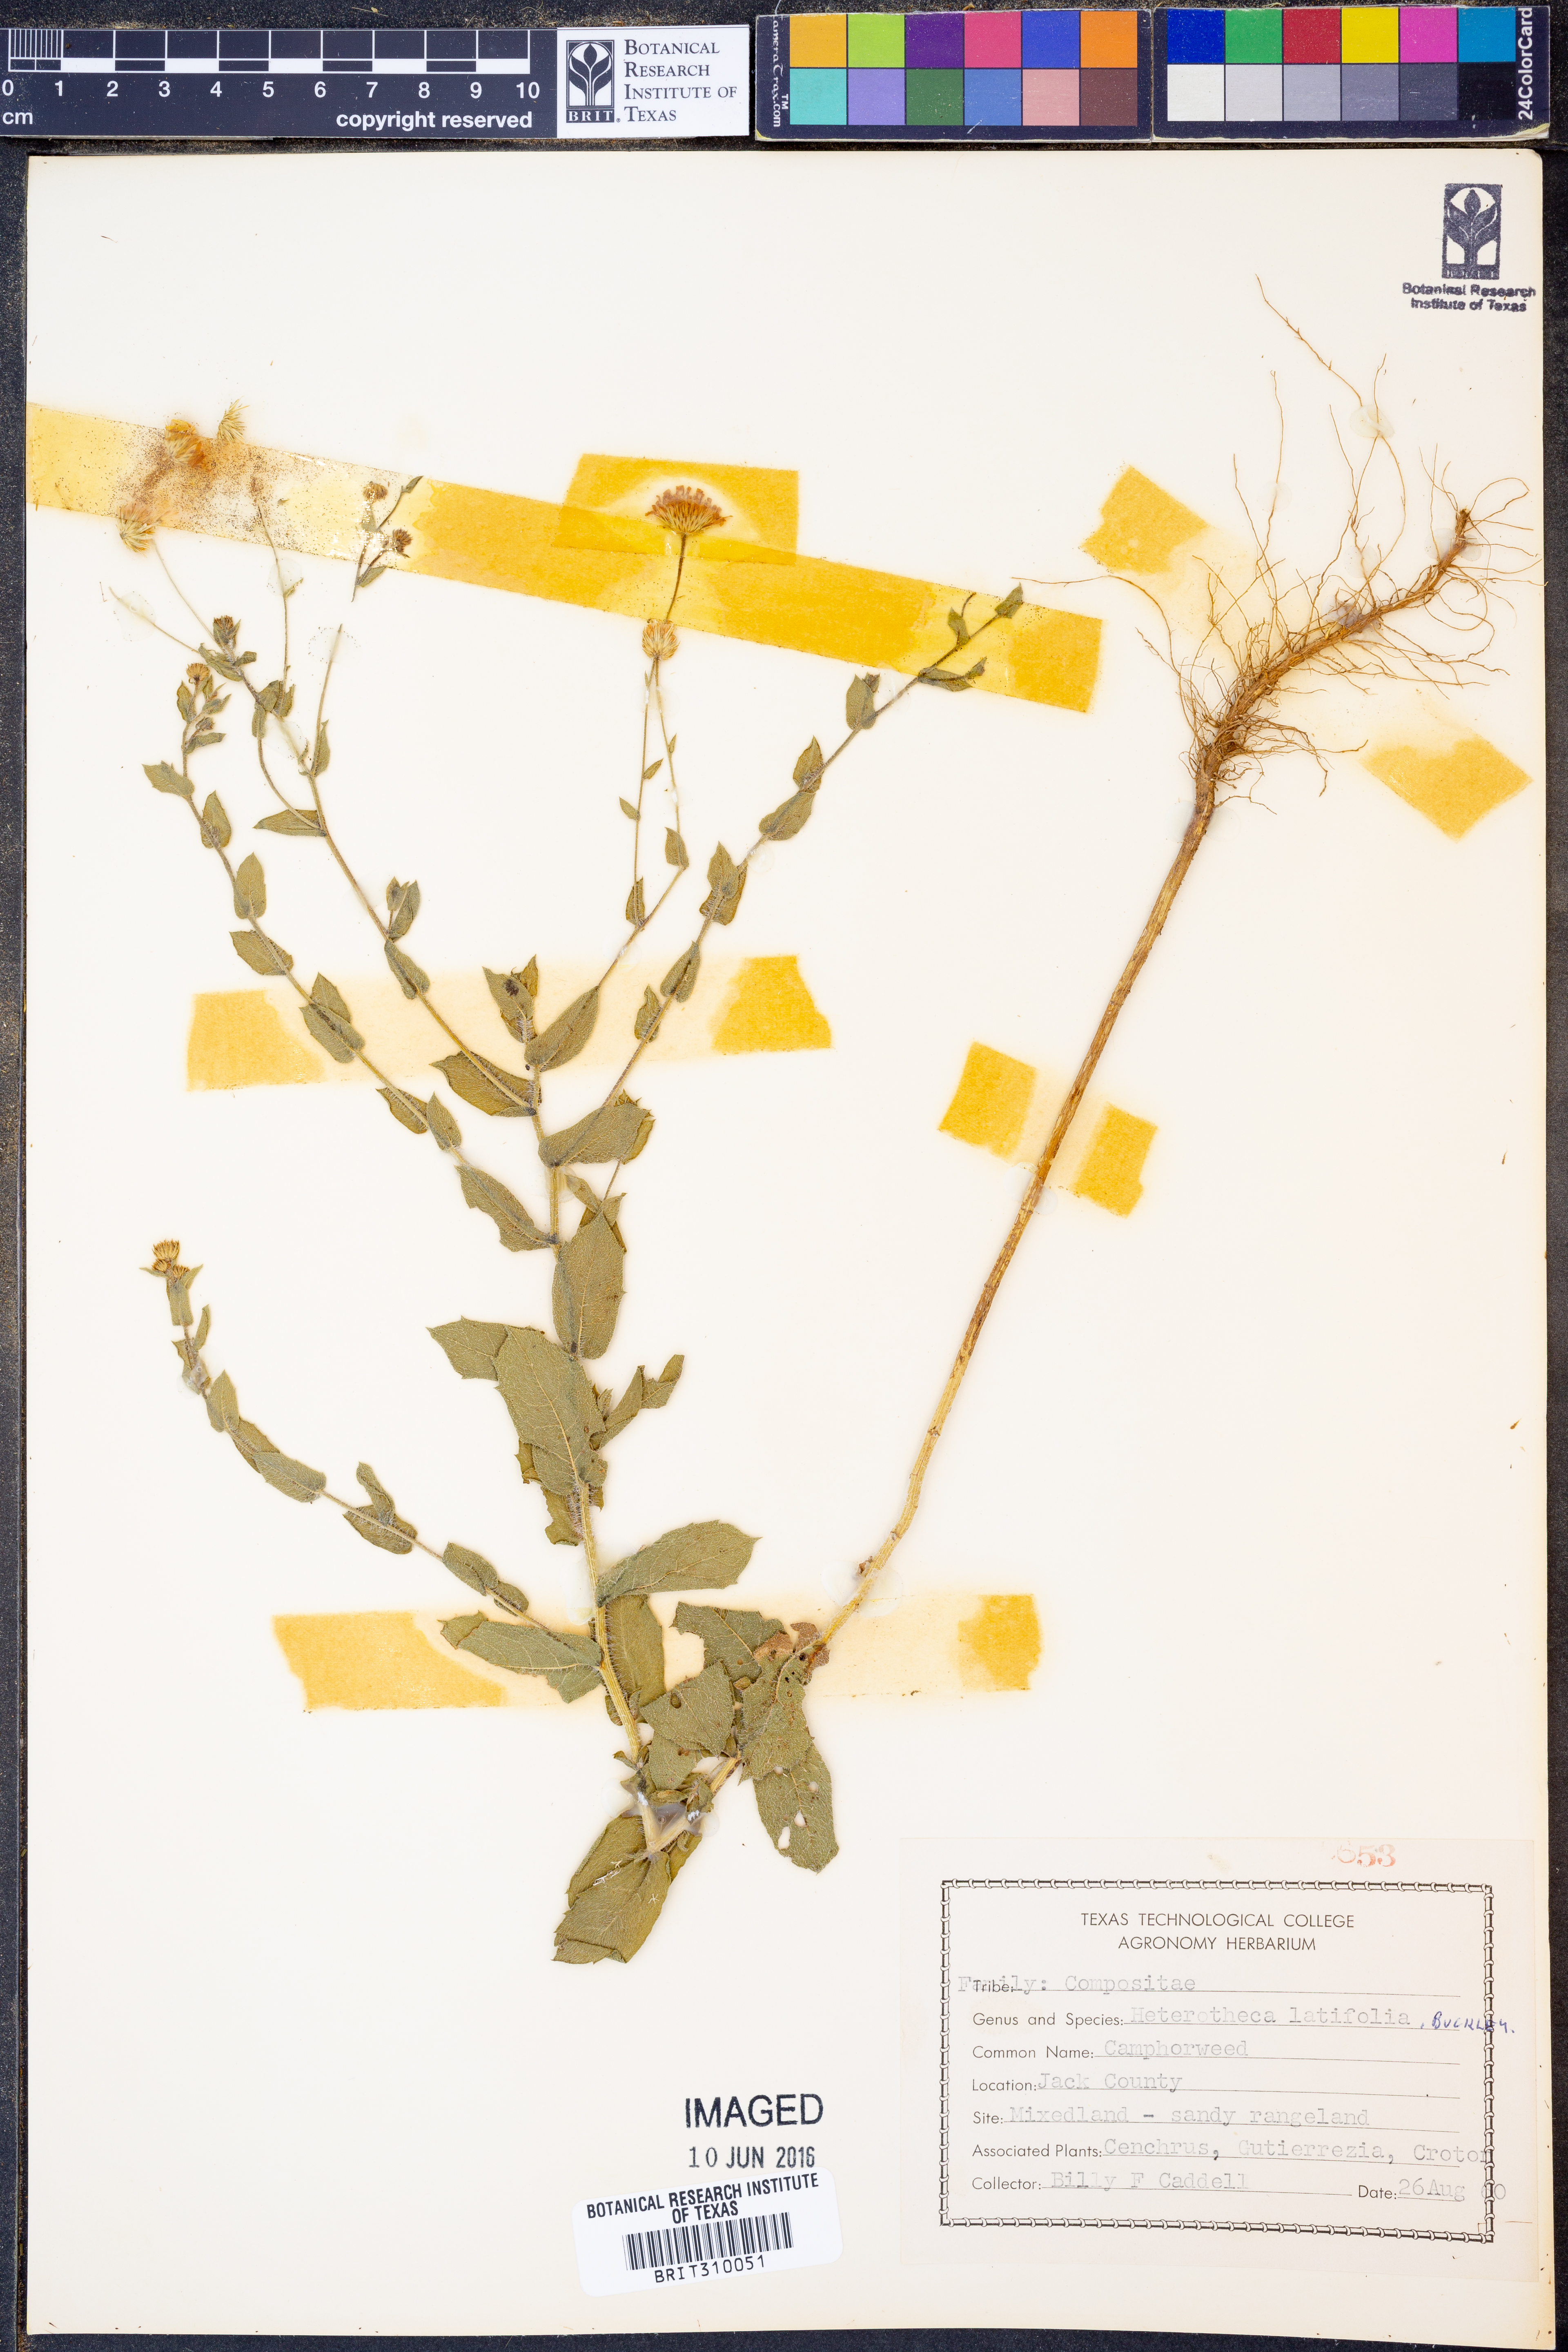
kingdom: Plantae
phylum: Tracheophyta
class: Magnoliopsida
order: Asterales
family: Asteraceae
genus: Heterotheca
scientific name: Heterotheca subaxillaris
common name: Camphorweed
